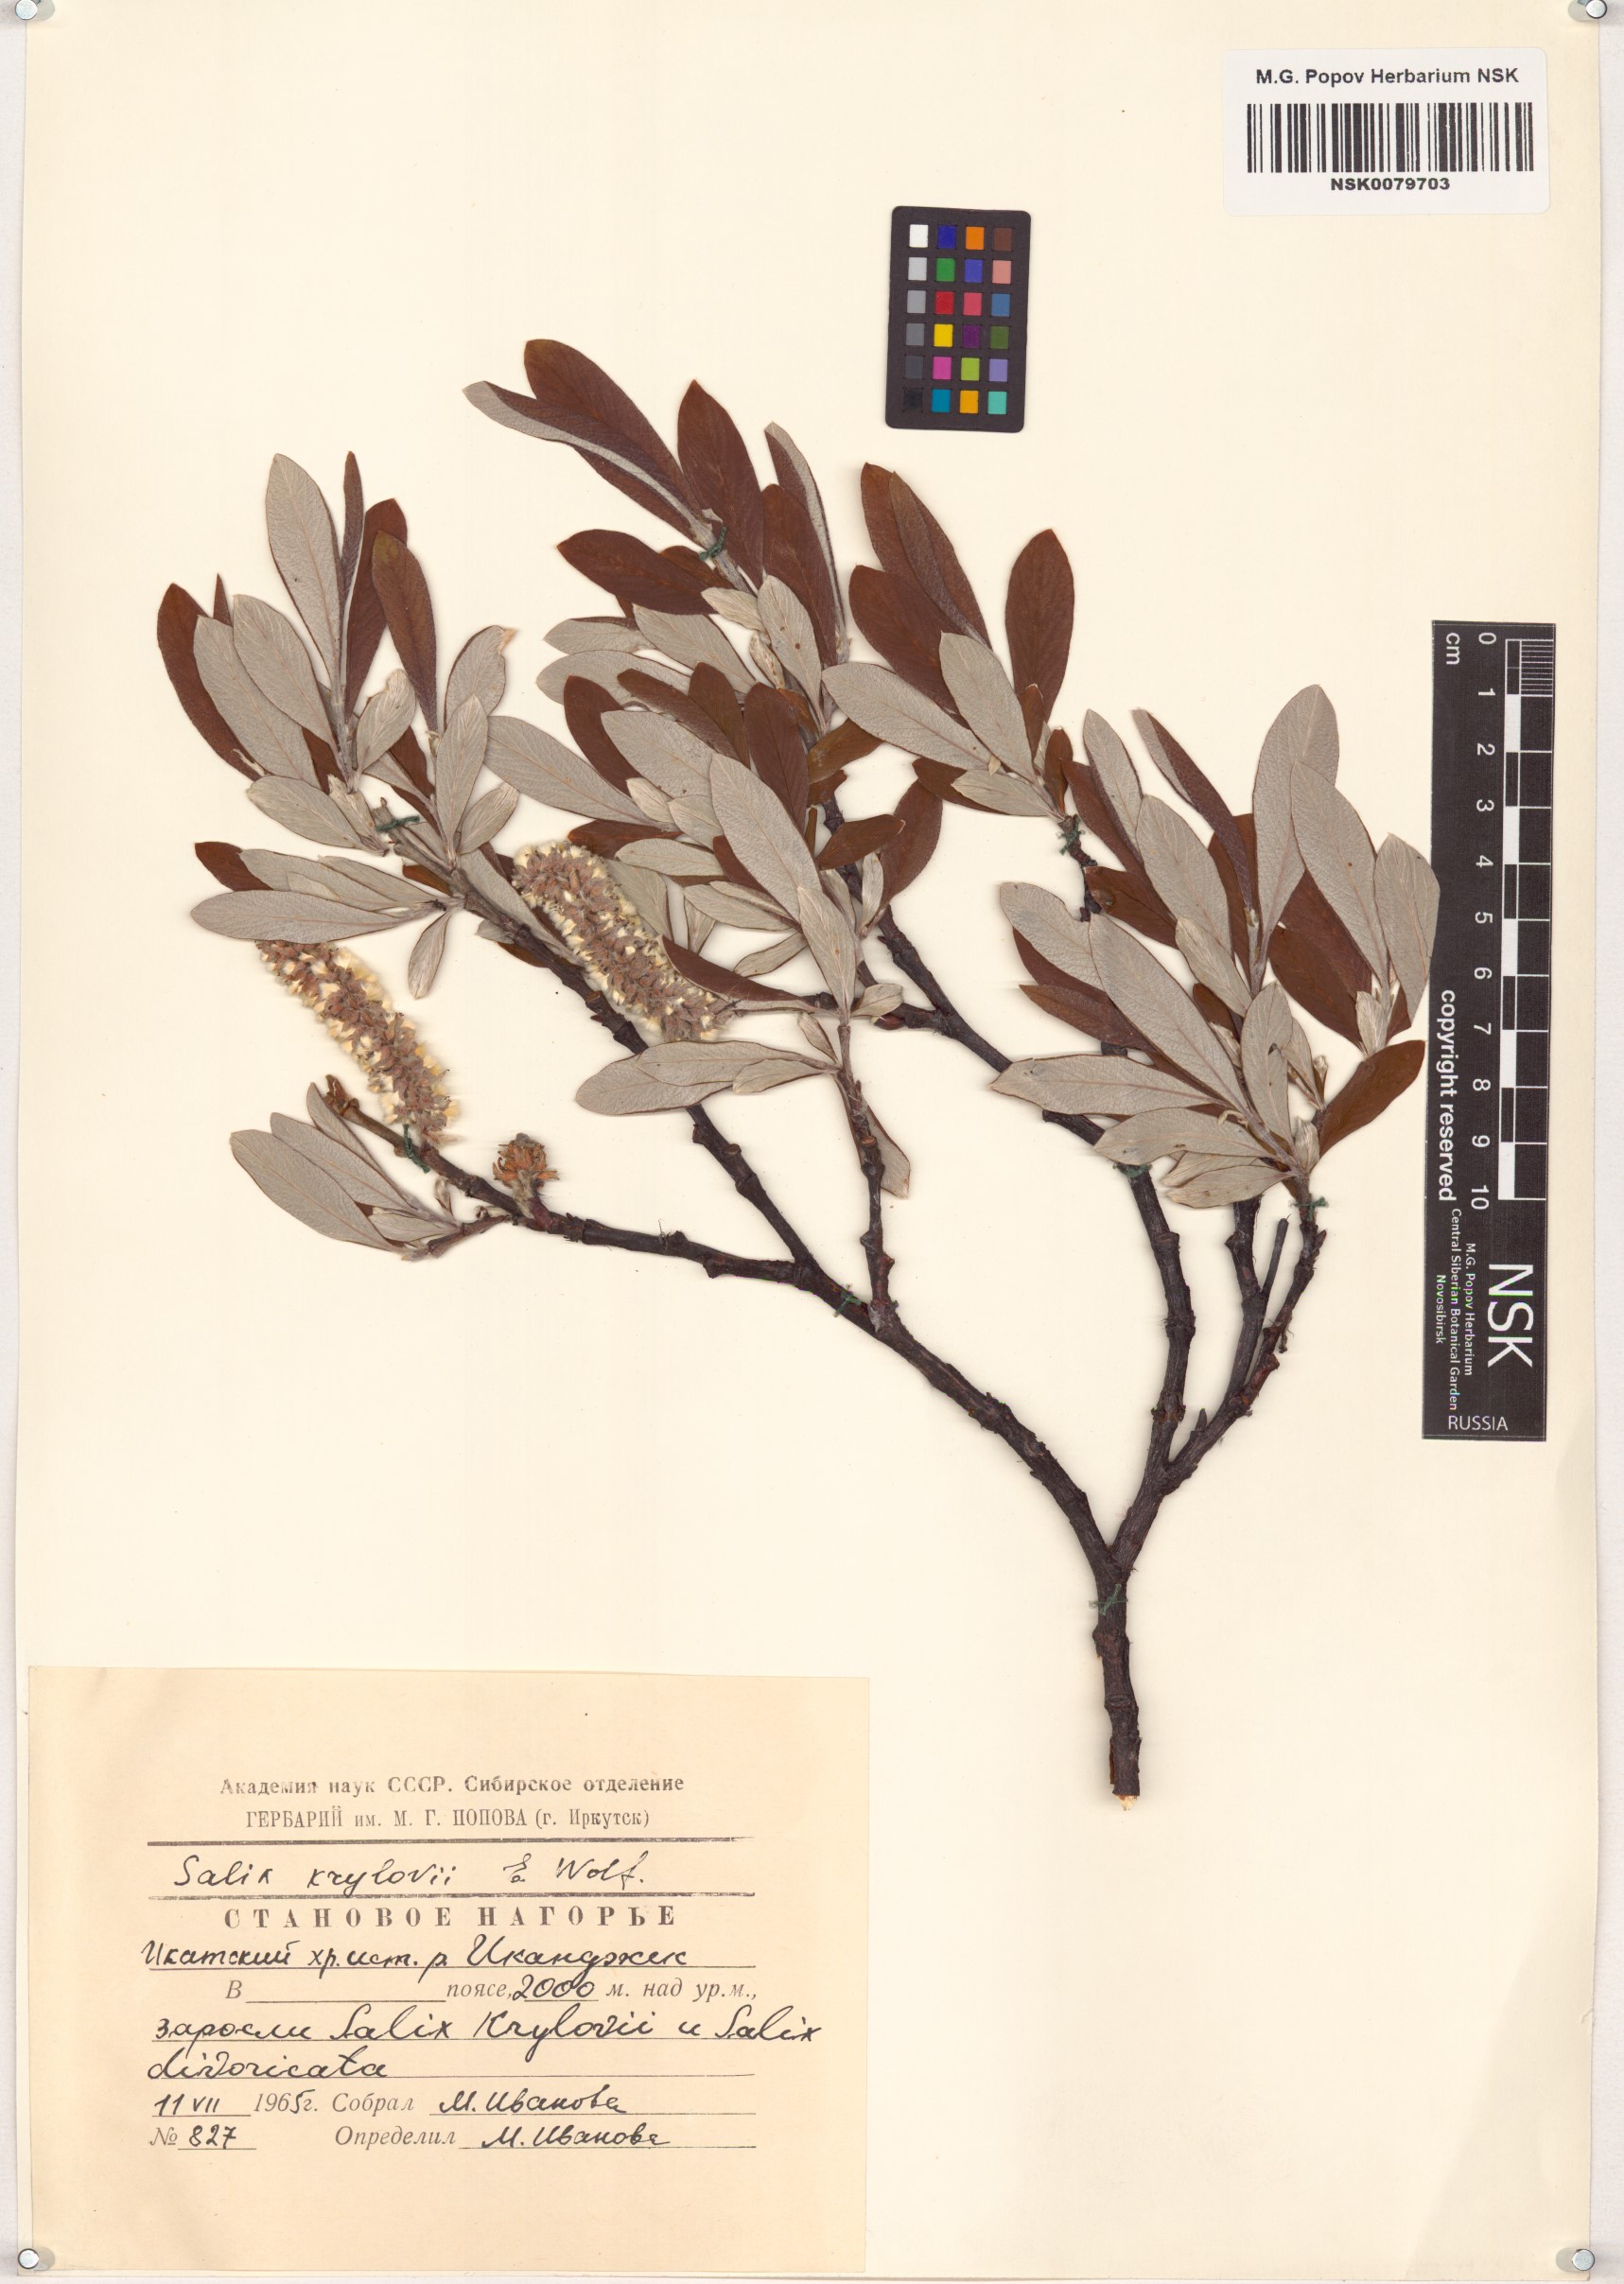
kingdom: Plantae
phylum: Tracheophyta
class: Magnoliopsida
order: Malpighiales
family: Salicaceae
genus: Salix
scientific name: Salix krylovii
